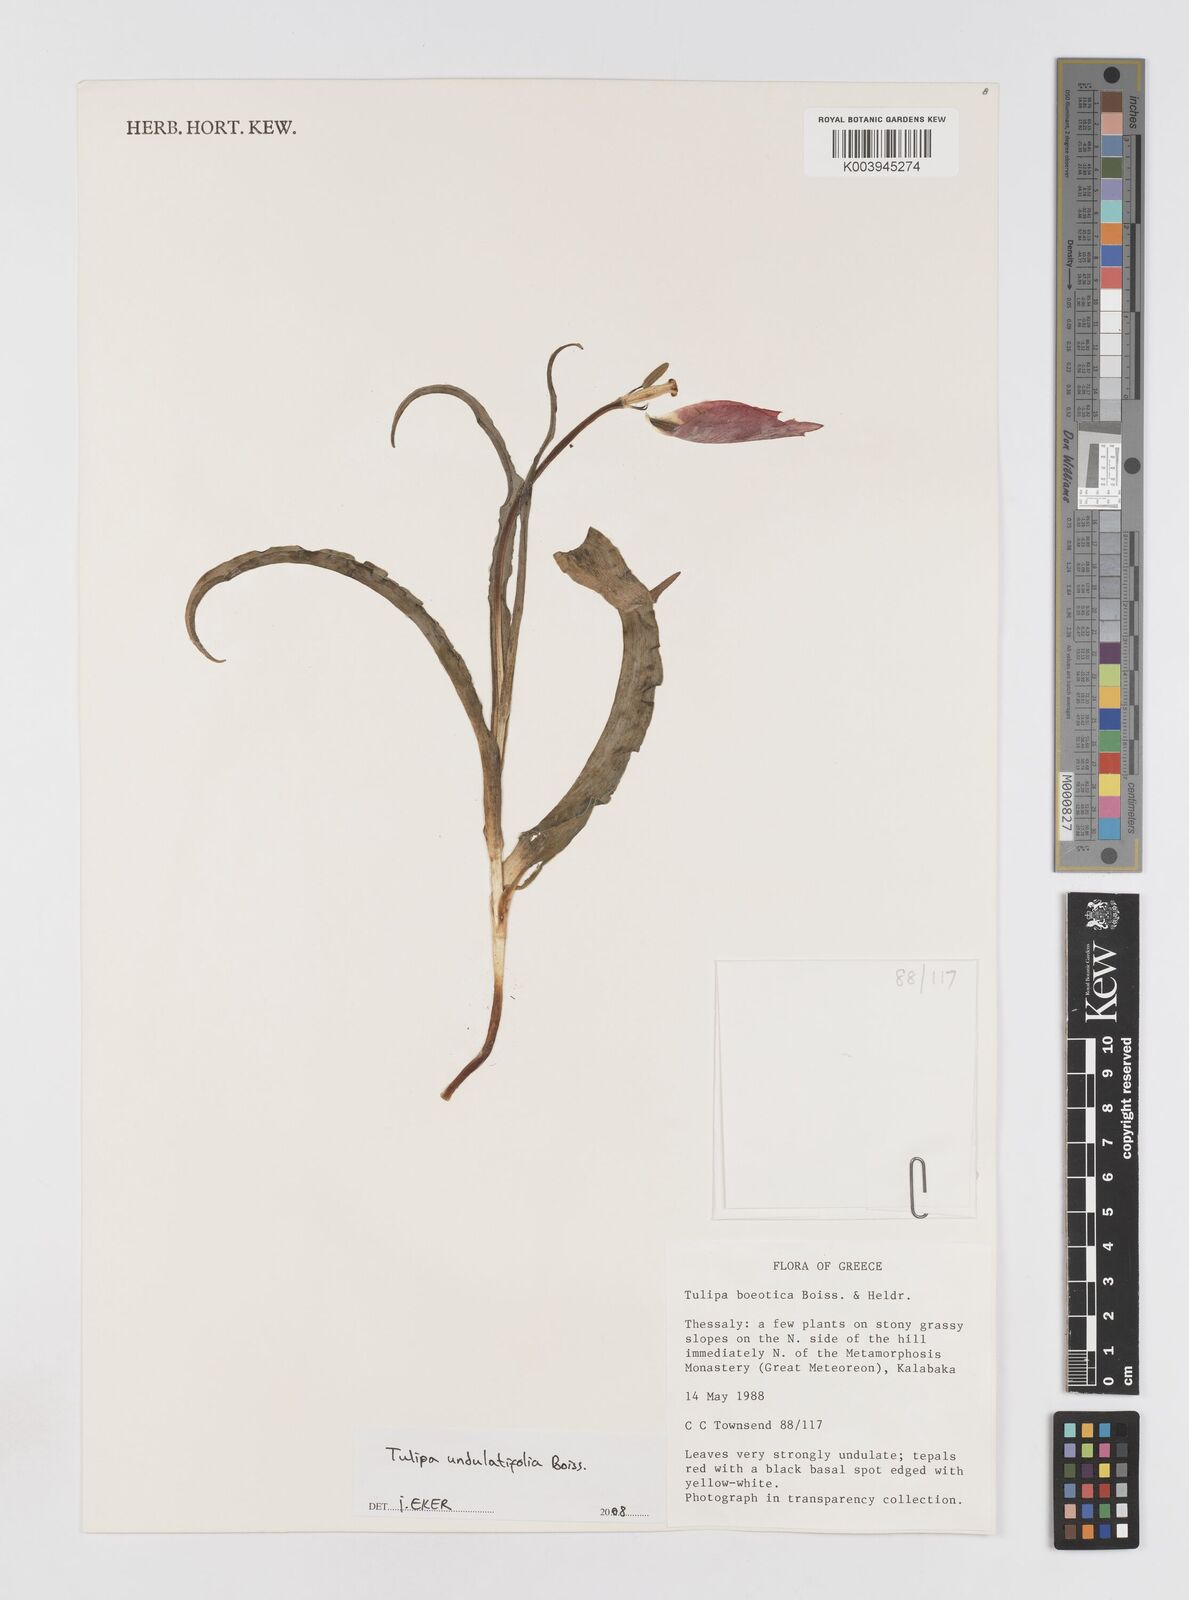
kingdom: Plantae
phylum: Tracheophyta
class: Liliopsida
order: Liliales
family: Liliaceae
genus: Tulipa
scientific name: Tulipa undulatifolia
